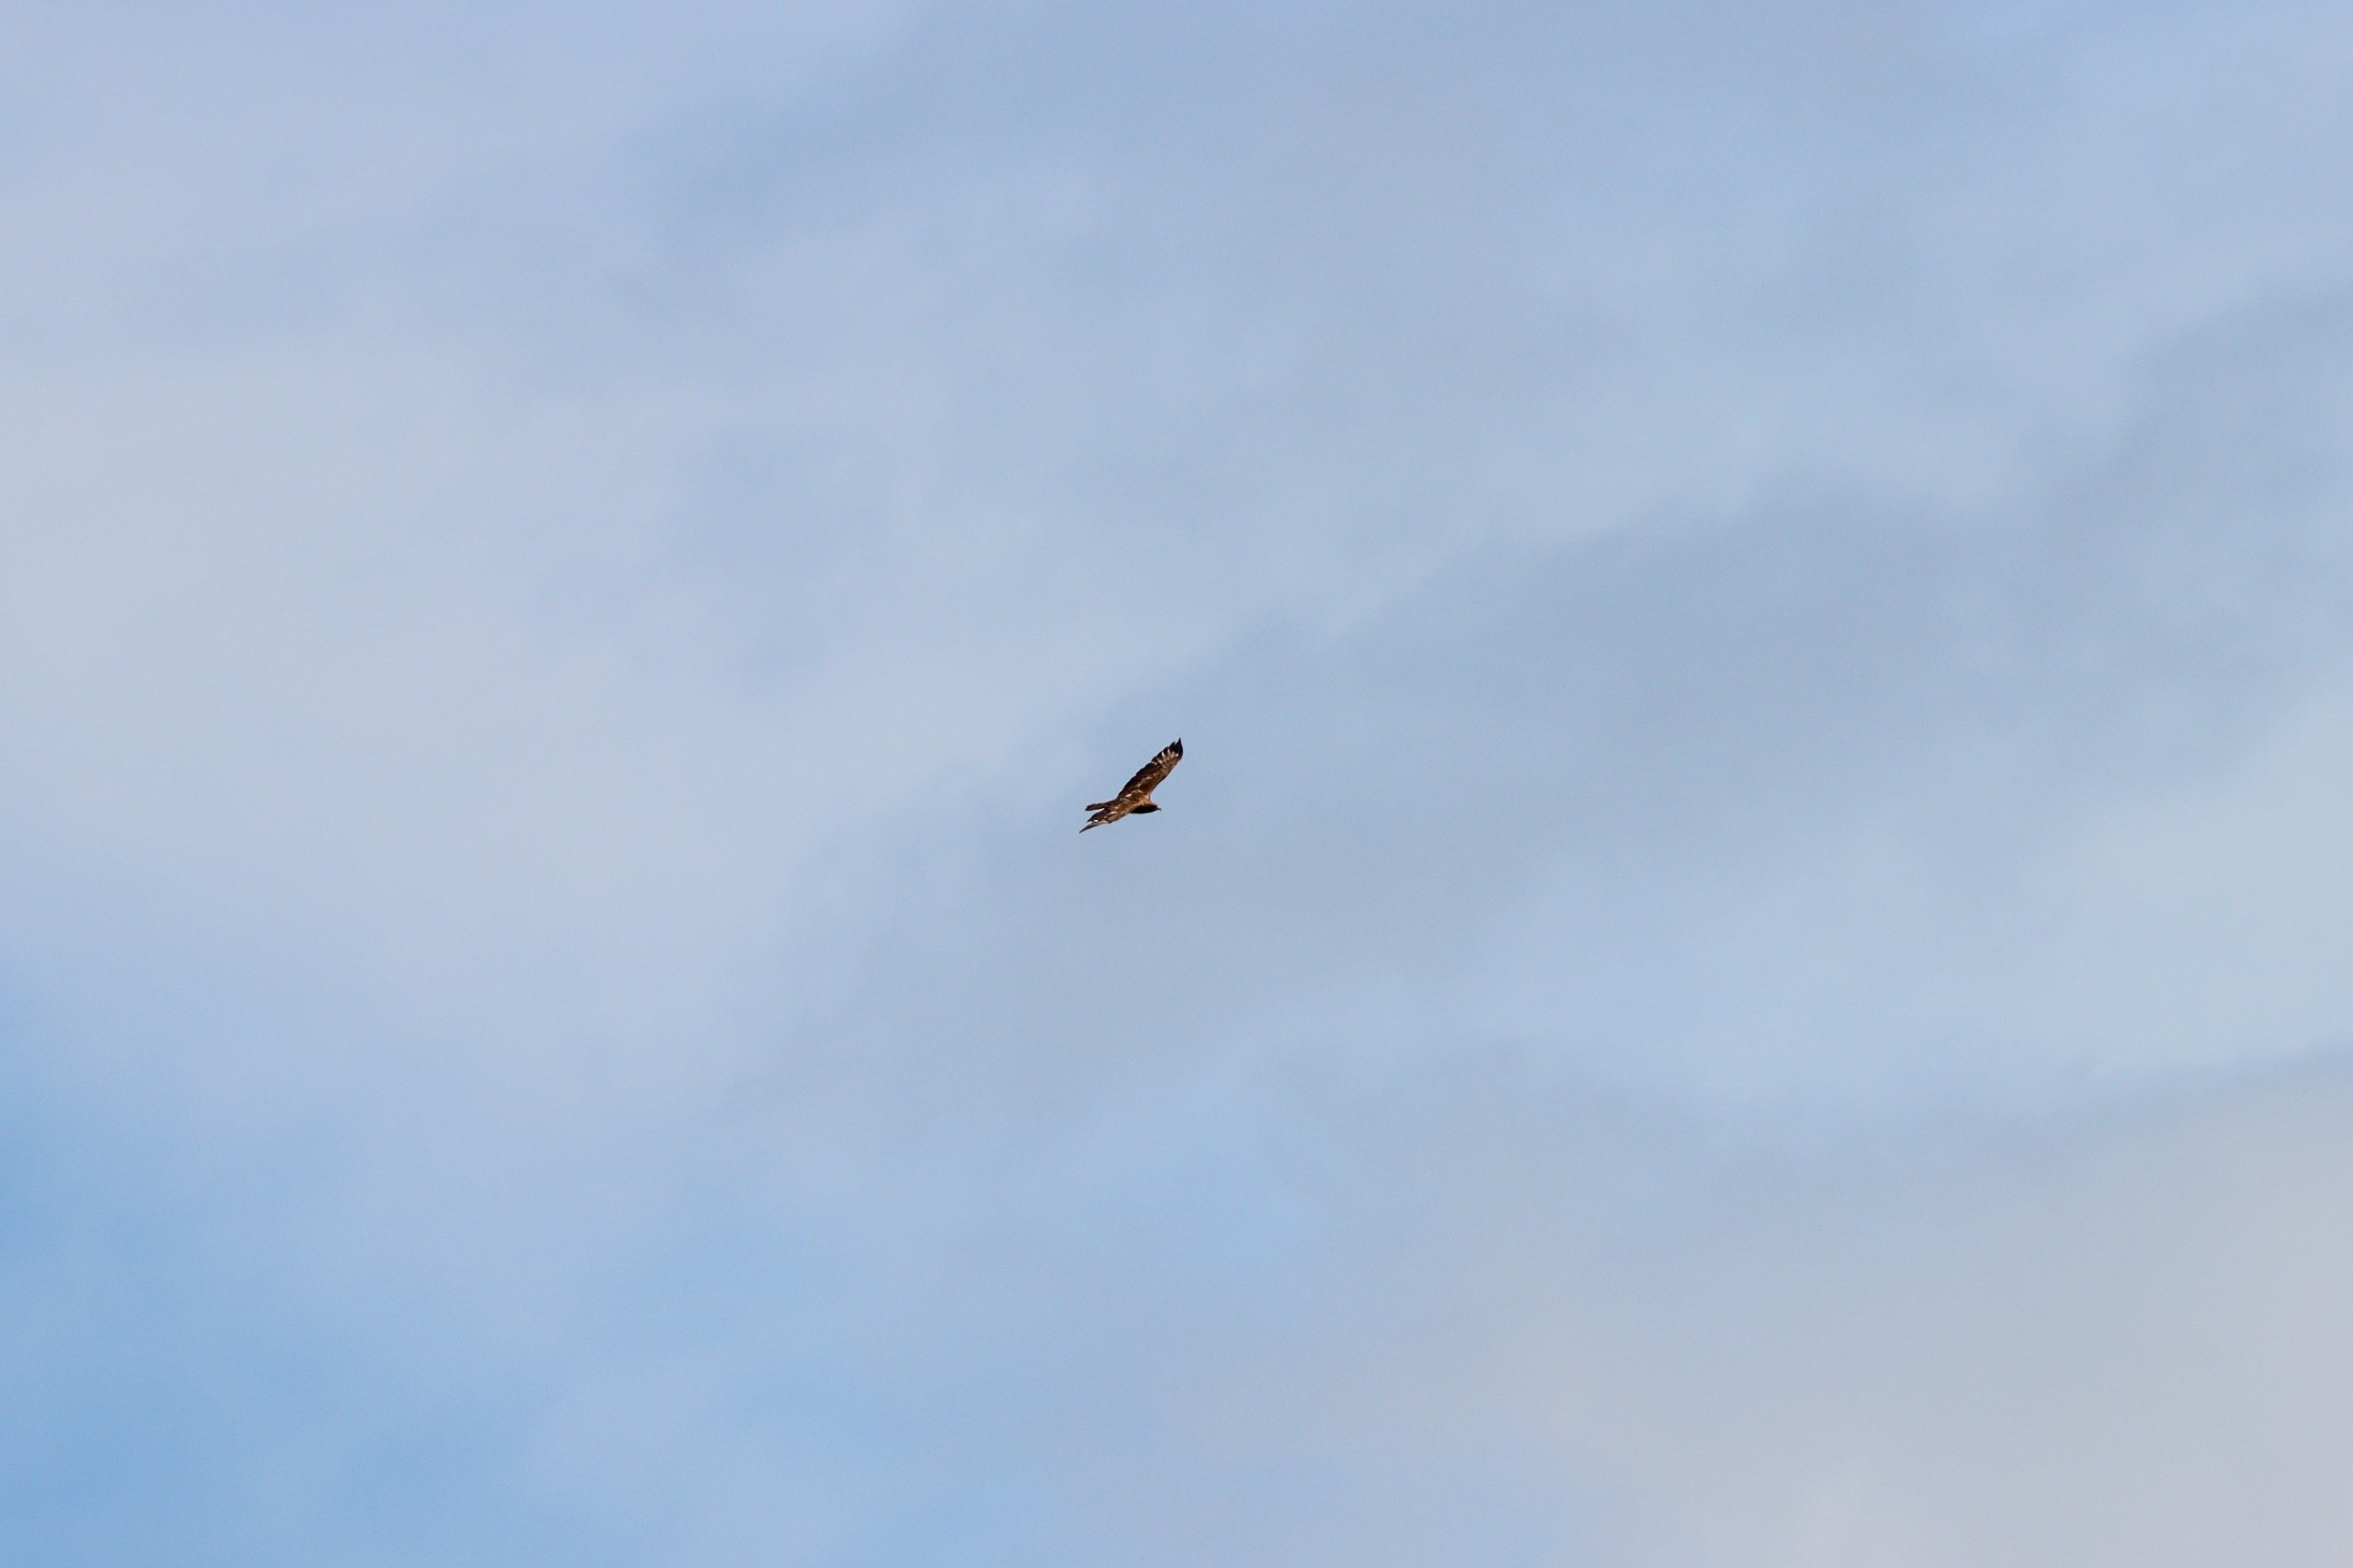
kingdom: Animalia
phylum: Chordata
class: Aves
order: Accipitriformes
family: Accipitridae
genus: Buteo
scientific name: Buteo buteo
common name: Musvåge
